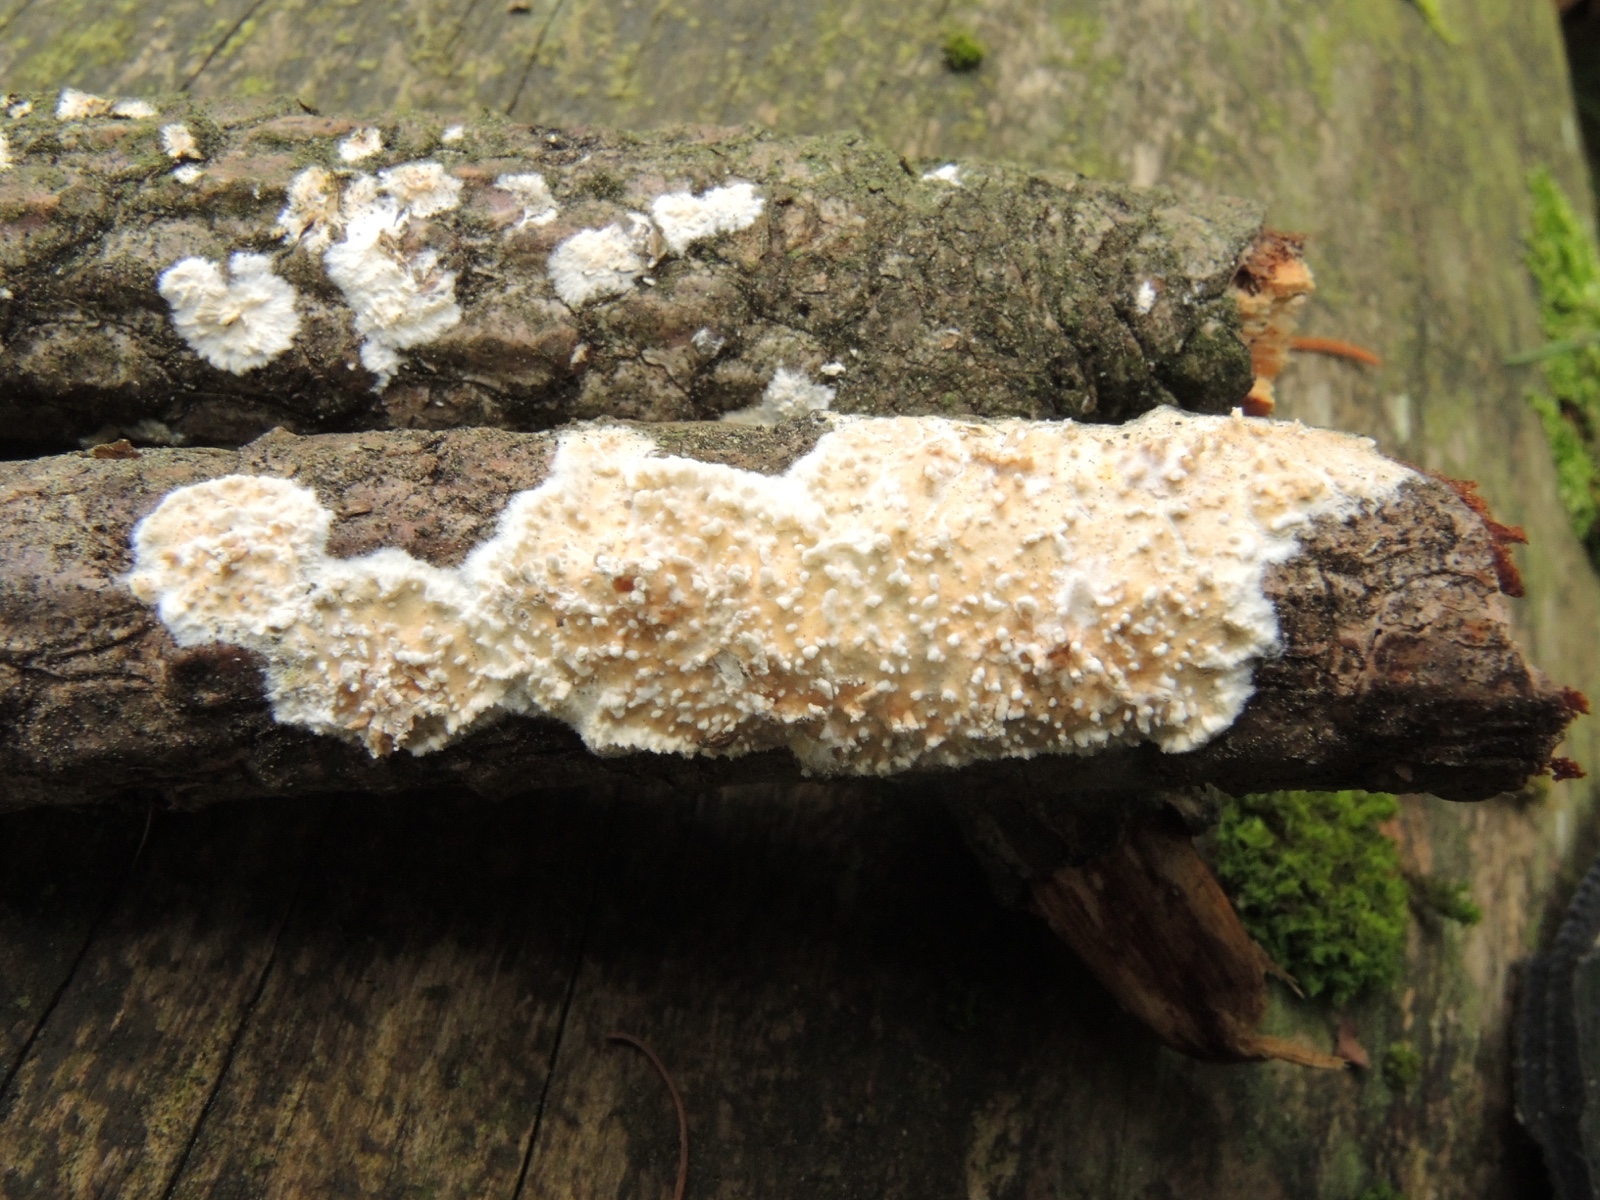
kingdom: Fungi
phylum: Basidiomycota
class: Agaricomycetes
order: Hymenochaetales
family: Schizoporaceae
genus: Xylodon
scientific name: Xylodon radula
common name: grovtandet kalkskind
